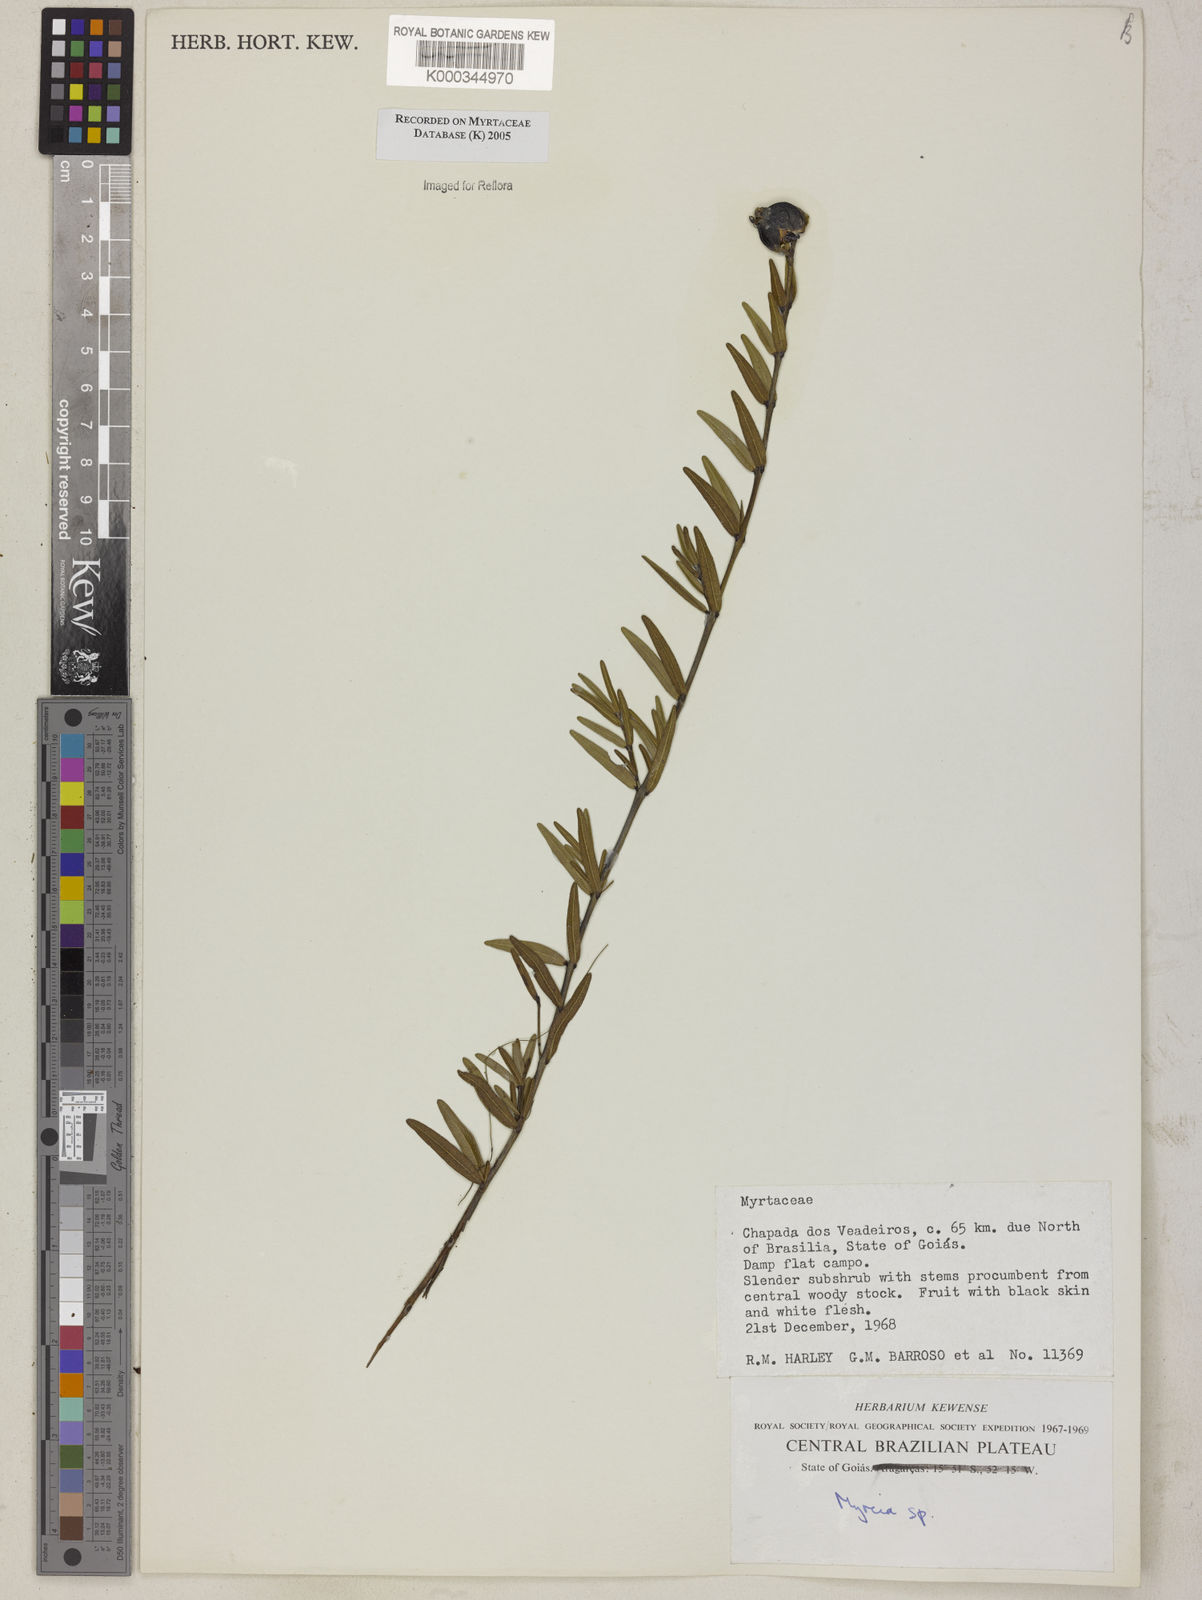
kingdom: Plantae
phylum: Tracheophyta
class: Magnoliopsida
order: Myrtales
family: Myrtaceae
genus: Myrcia
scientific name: Myrcia
